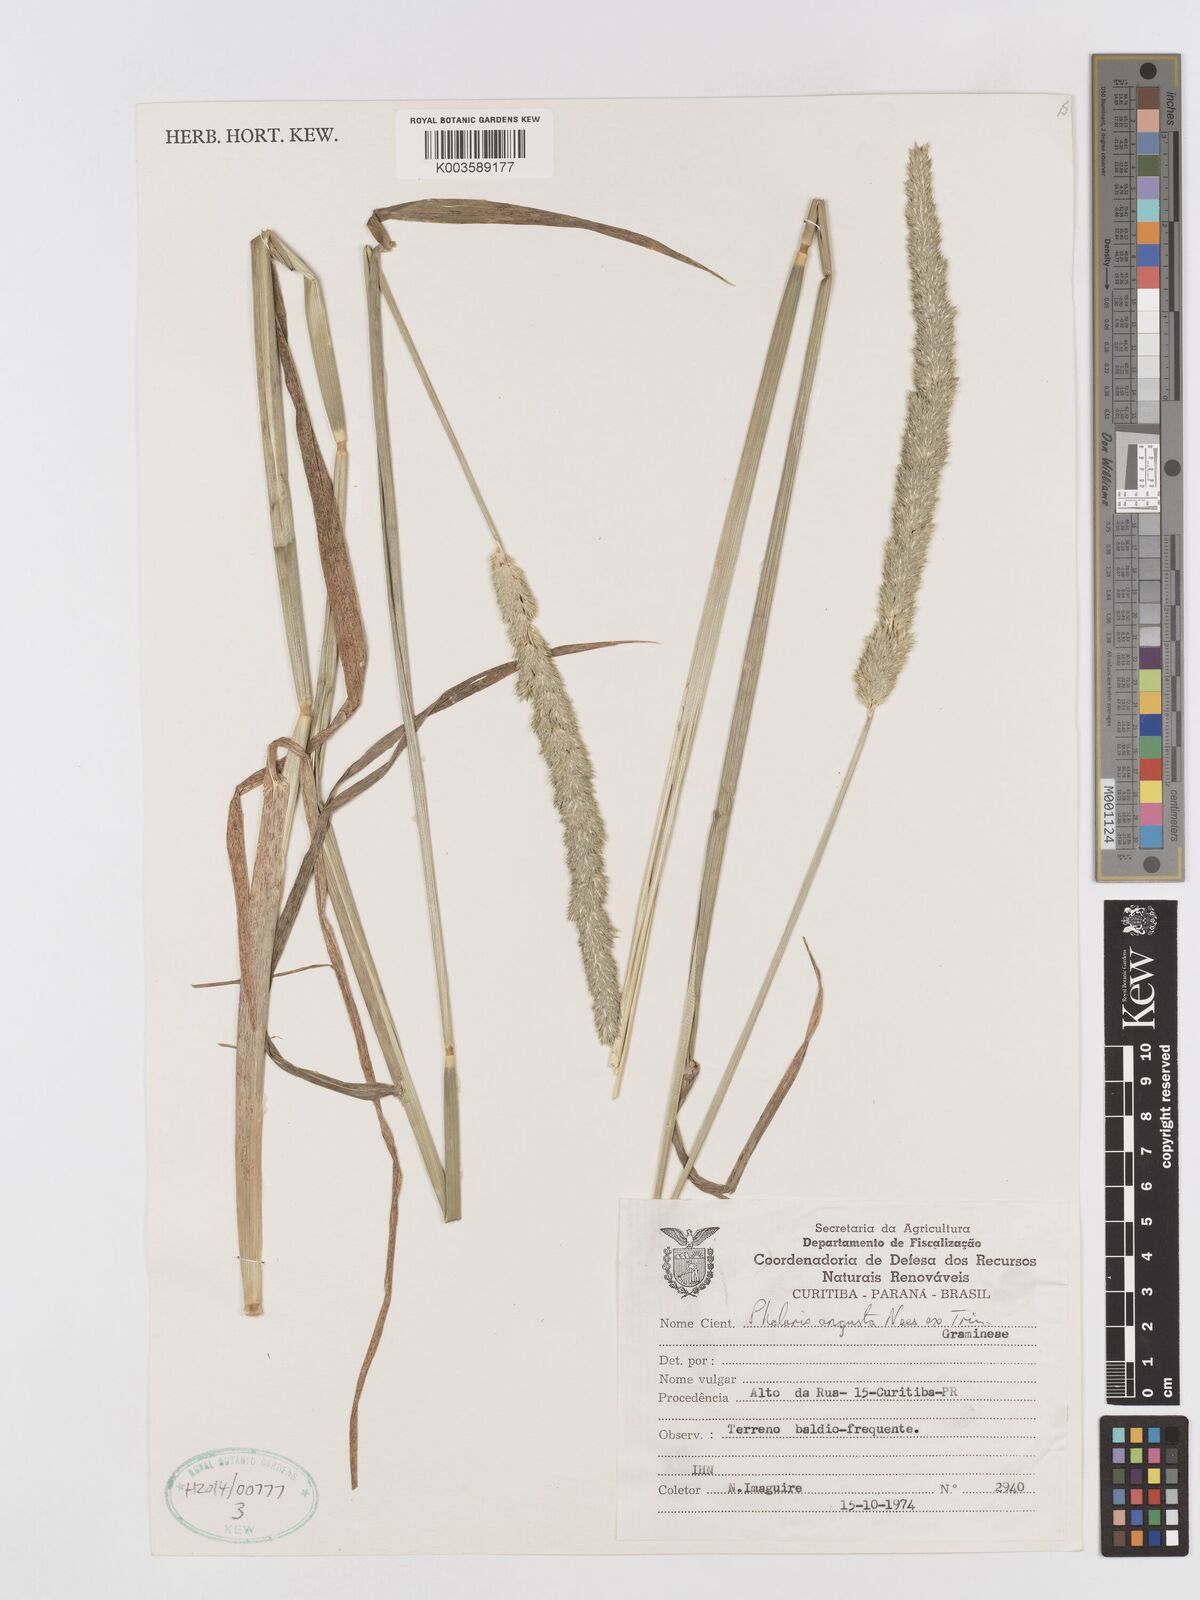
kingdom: Plantae
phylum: Tracheophyta
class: Liliopsida
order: Poales
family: Poaceae
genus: Phalaris
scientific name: Phalaris angusta
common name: Narrow canary grass
